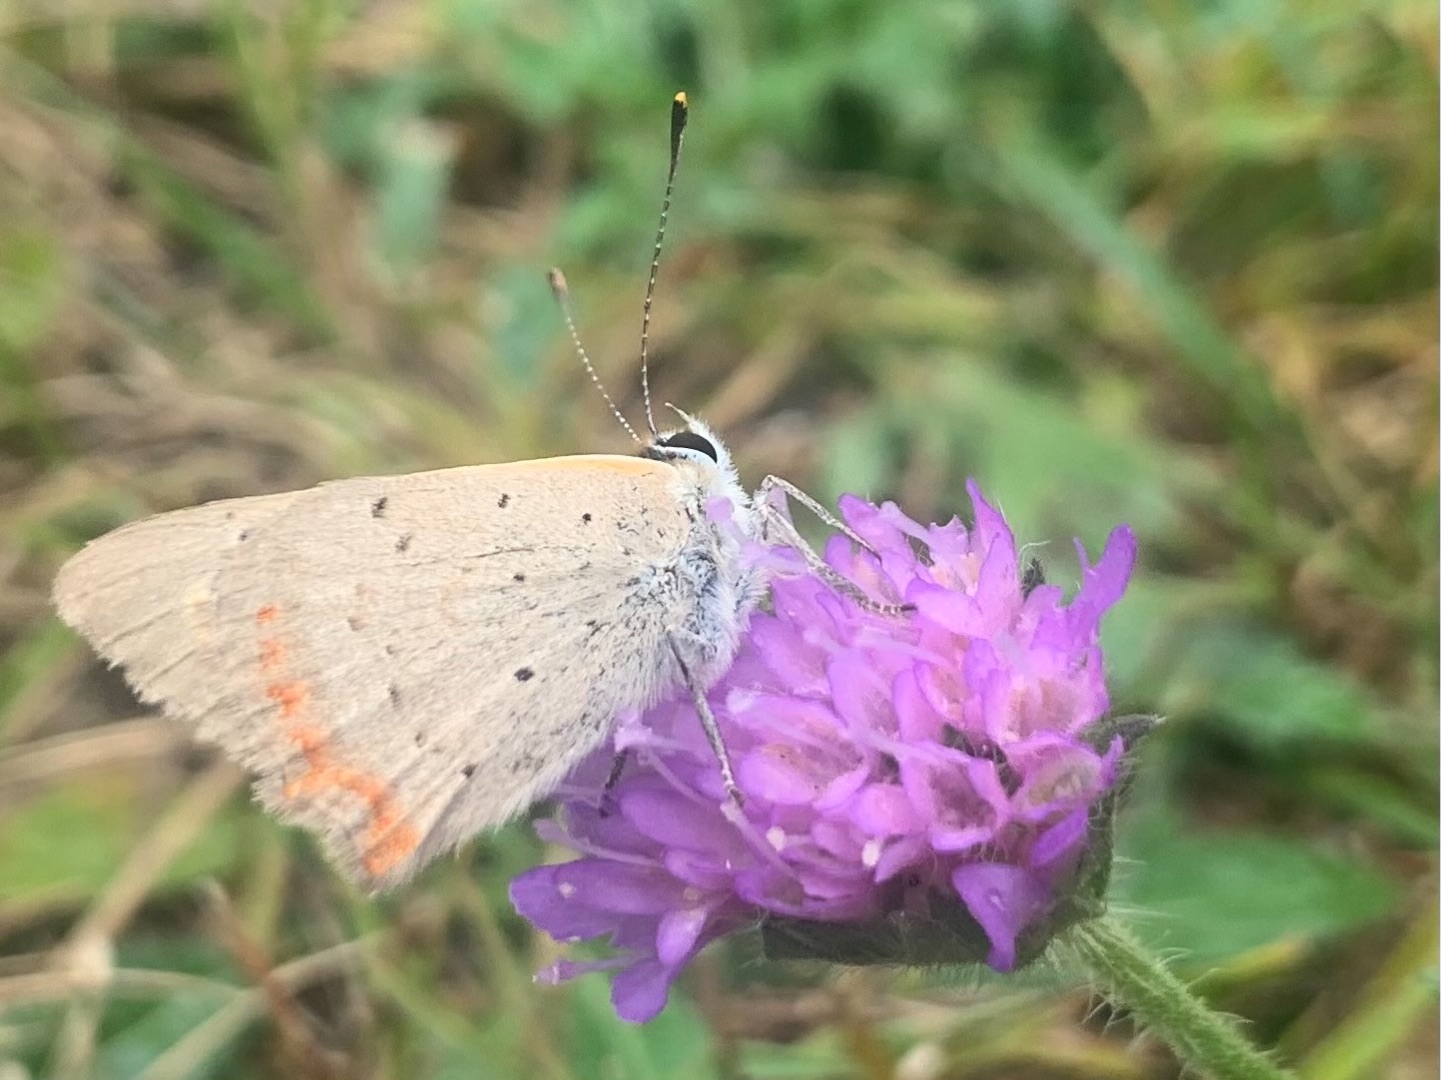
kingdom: Animalia
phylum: Arthropoda
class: Insecta
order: Lepidoptera
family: Lycaenidae
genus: Lycaena
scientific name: Lycaena phlaeas
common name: Lille ildfugl
